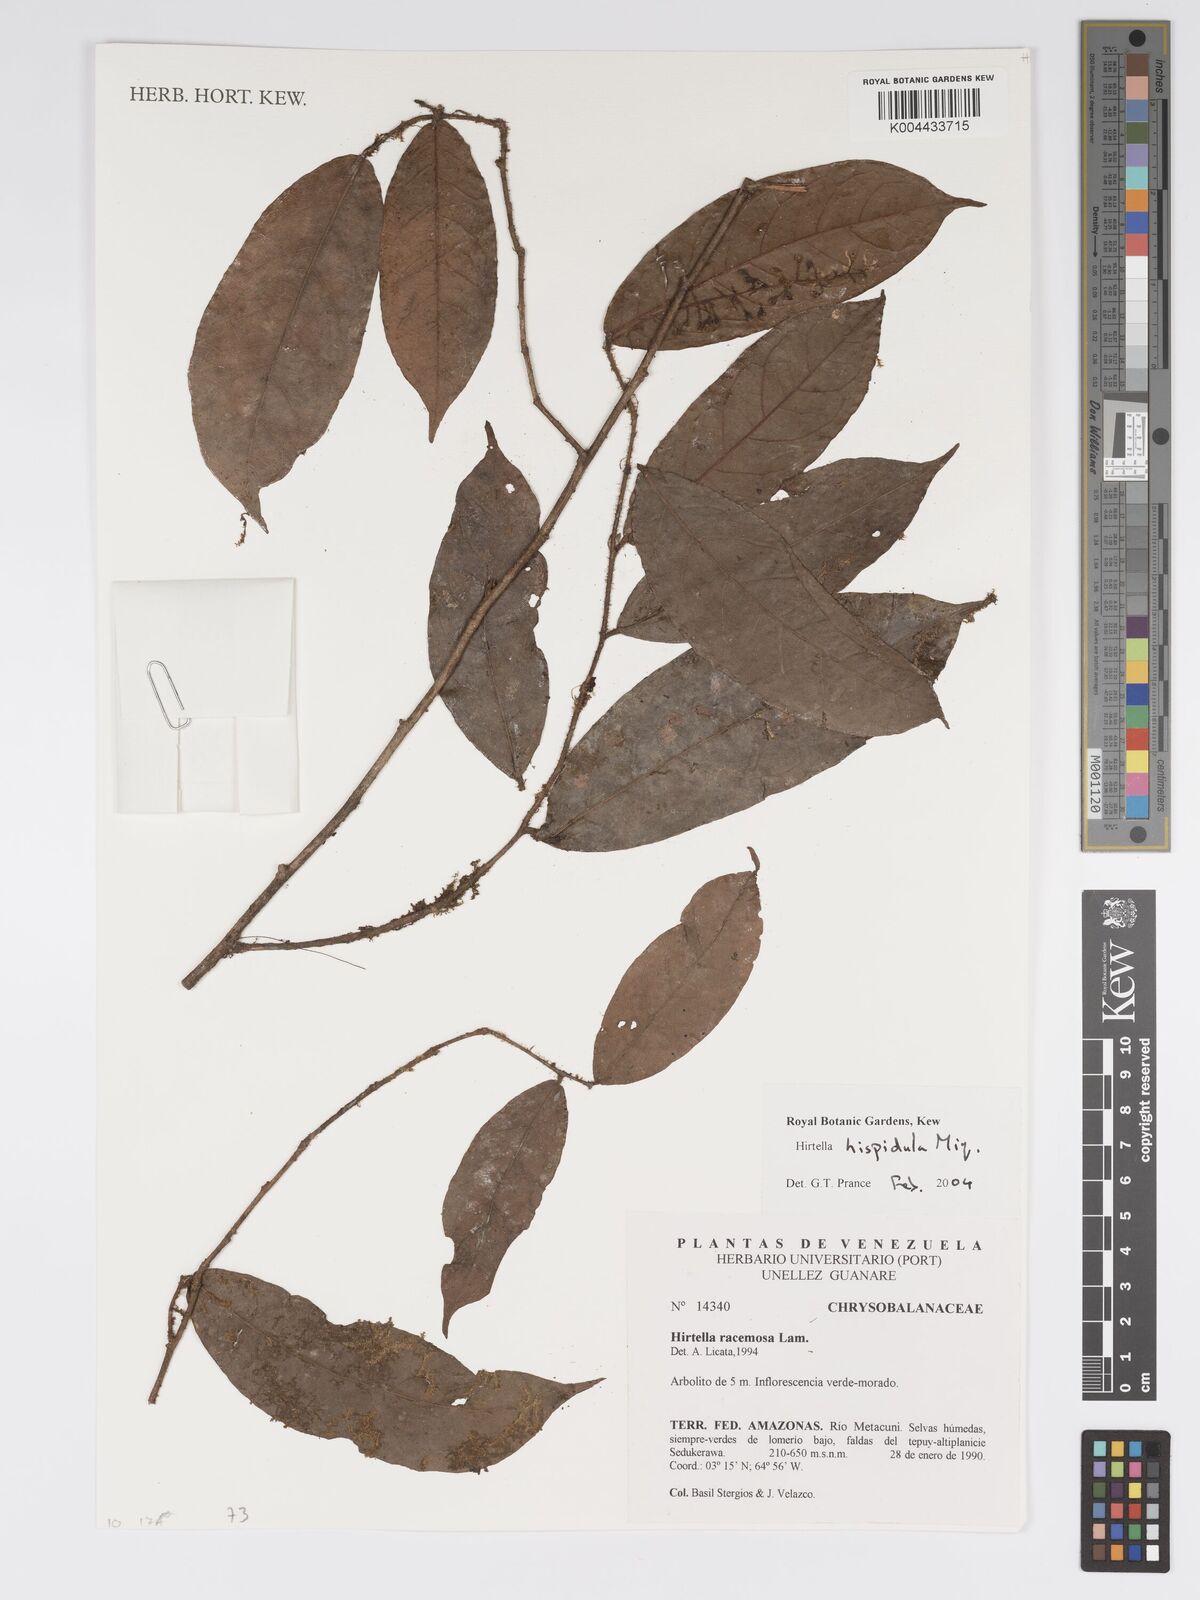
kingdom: Plantae
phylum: Tracheophyta
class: Magnoliopsida
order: Malpighiales
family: Chrysobalanaceae
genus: Hirtella
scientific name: Hirtella hispidula
